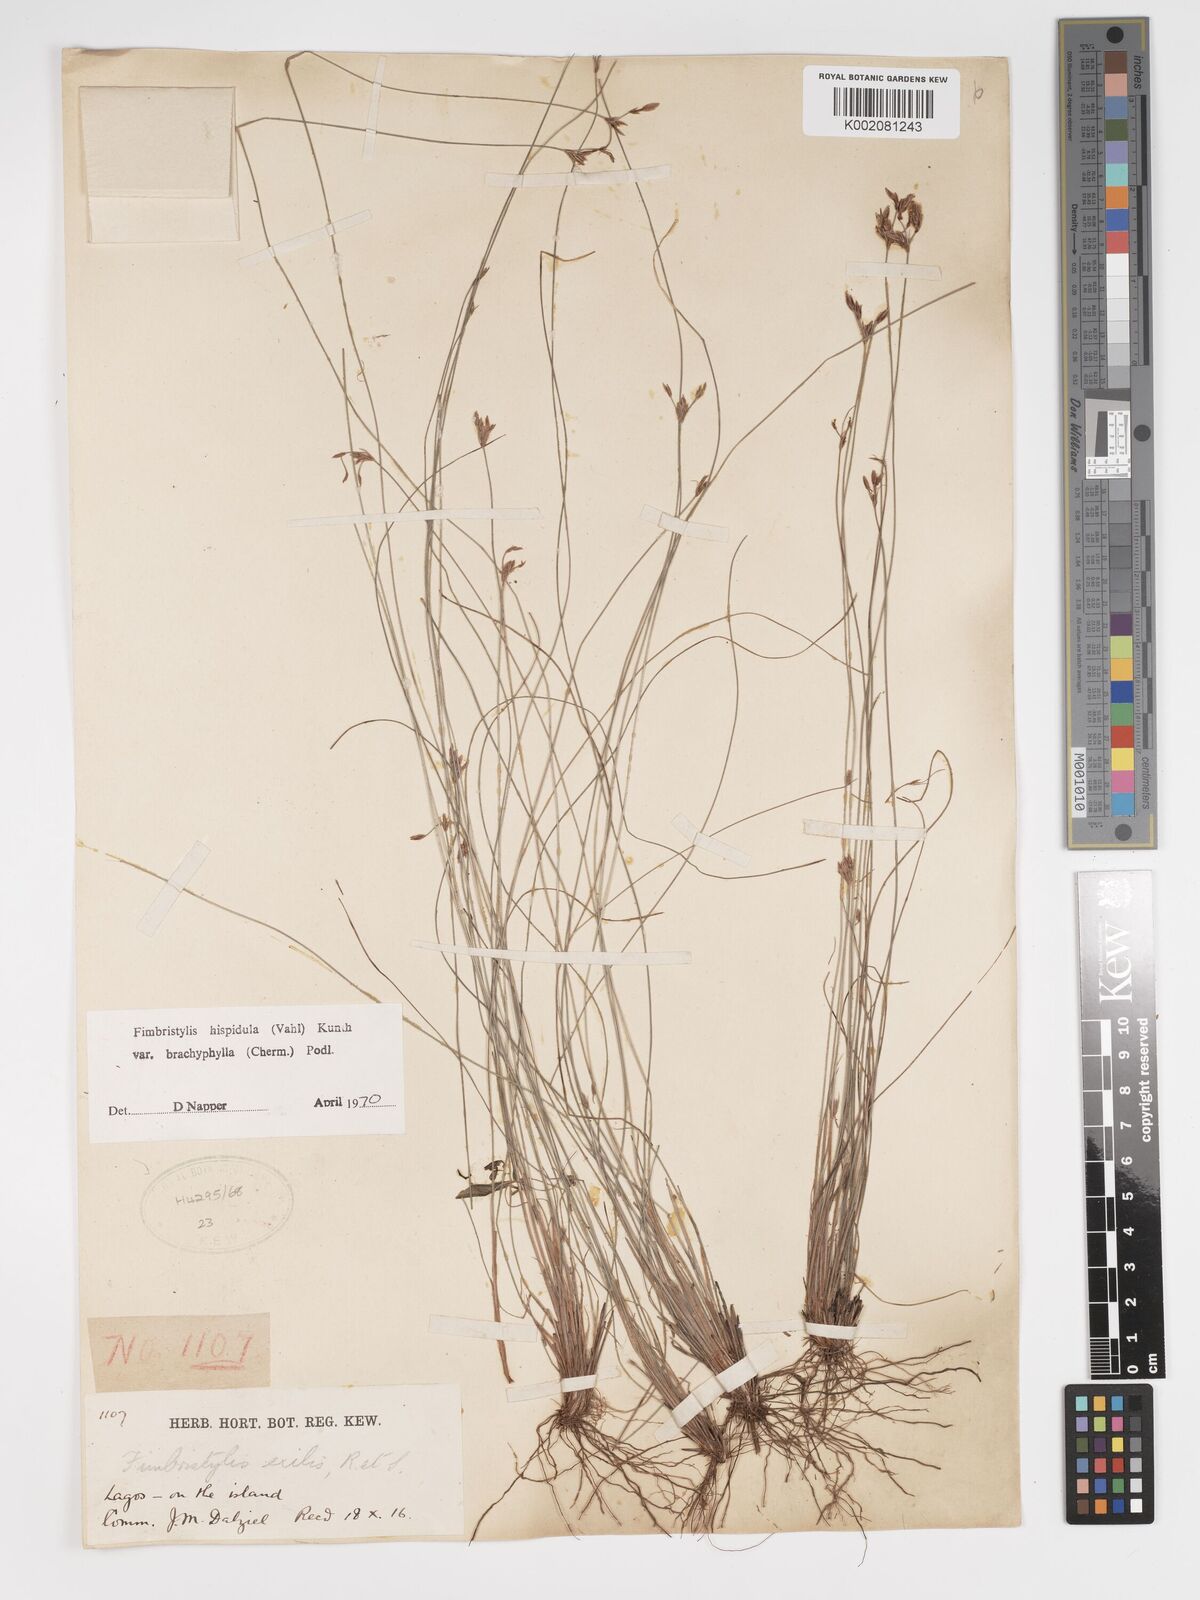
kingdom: Plantae
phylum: Tracheophyta
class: Liliopsida
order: Poales
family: Cyperaceae
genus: Bulbostylis
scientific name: Bulbostylis hispidula
